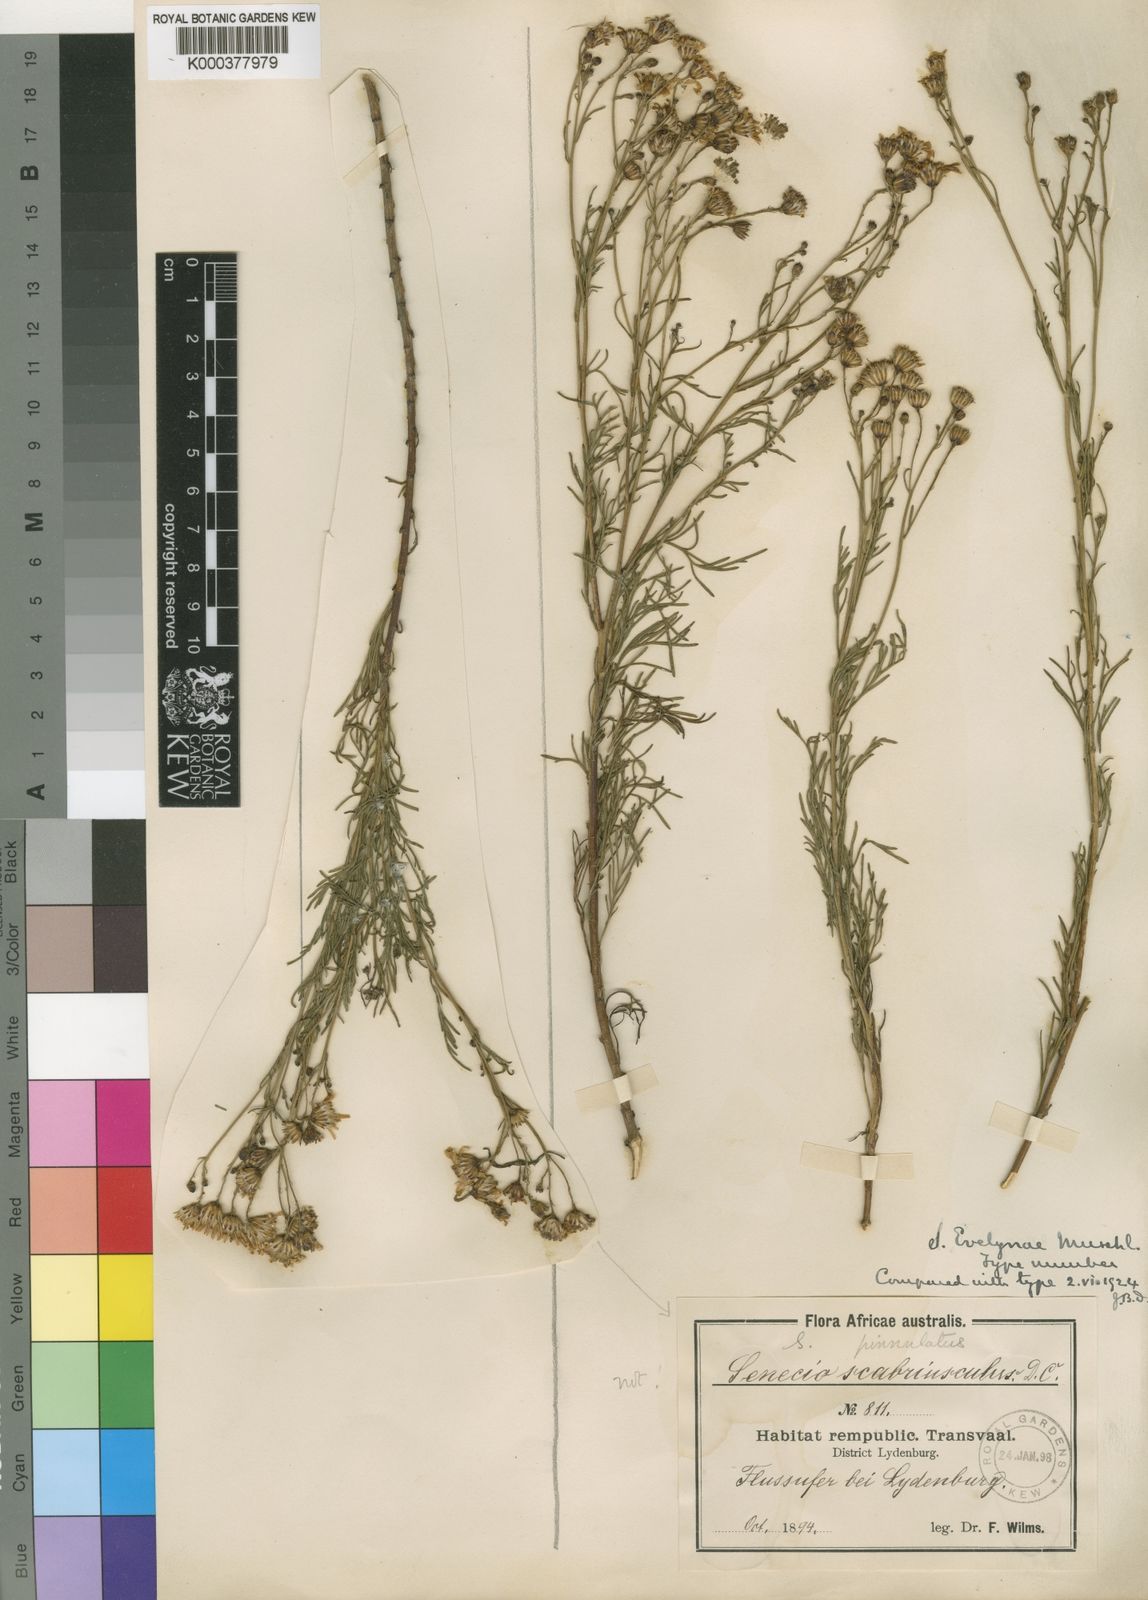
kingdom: Plantae
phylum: Tracheophyta
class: Magnoliopsida
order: Asterales
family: Asteraceae
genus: Senecio
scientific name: Senecio evelynae
